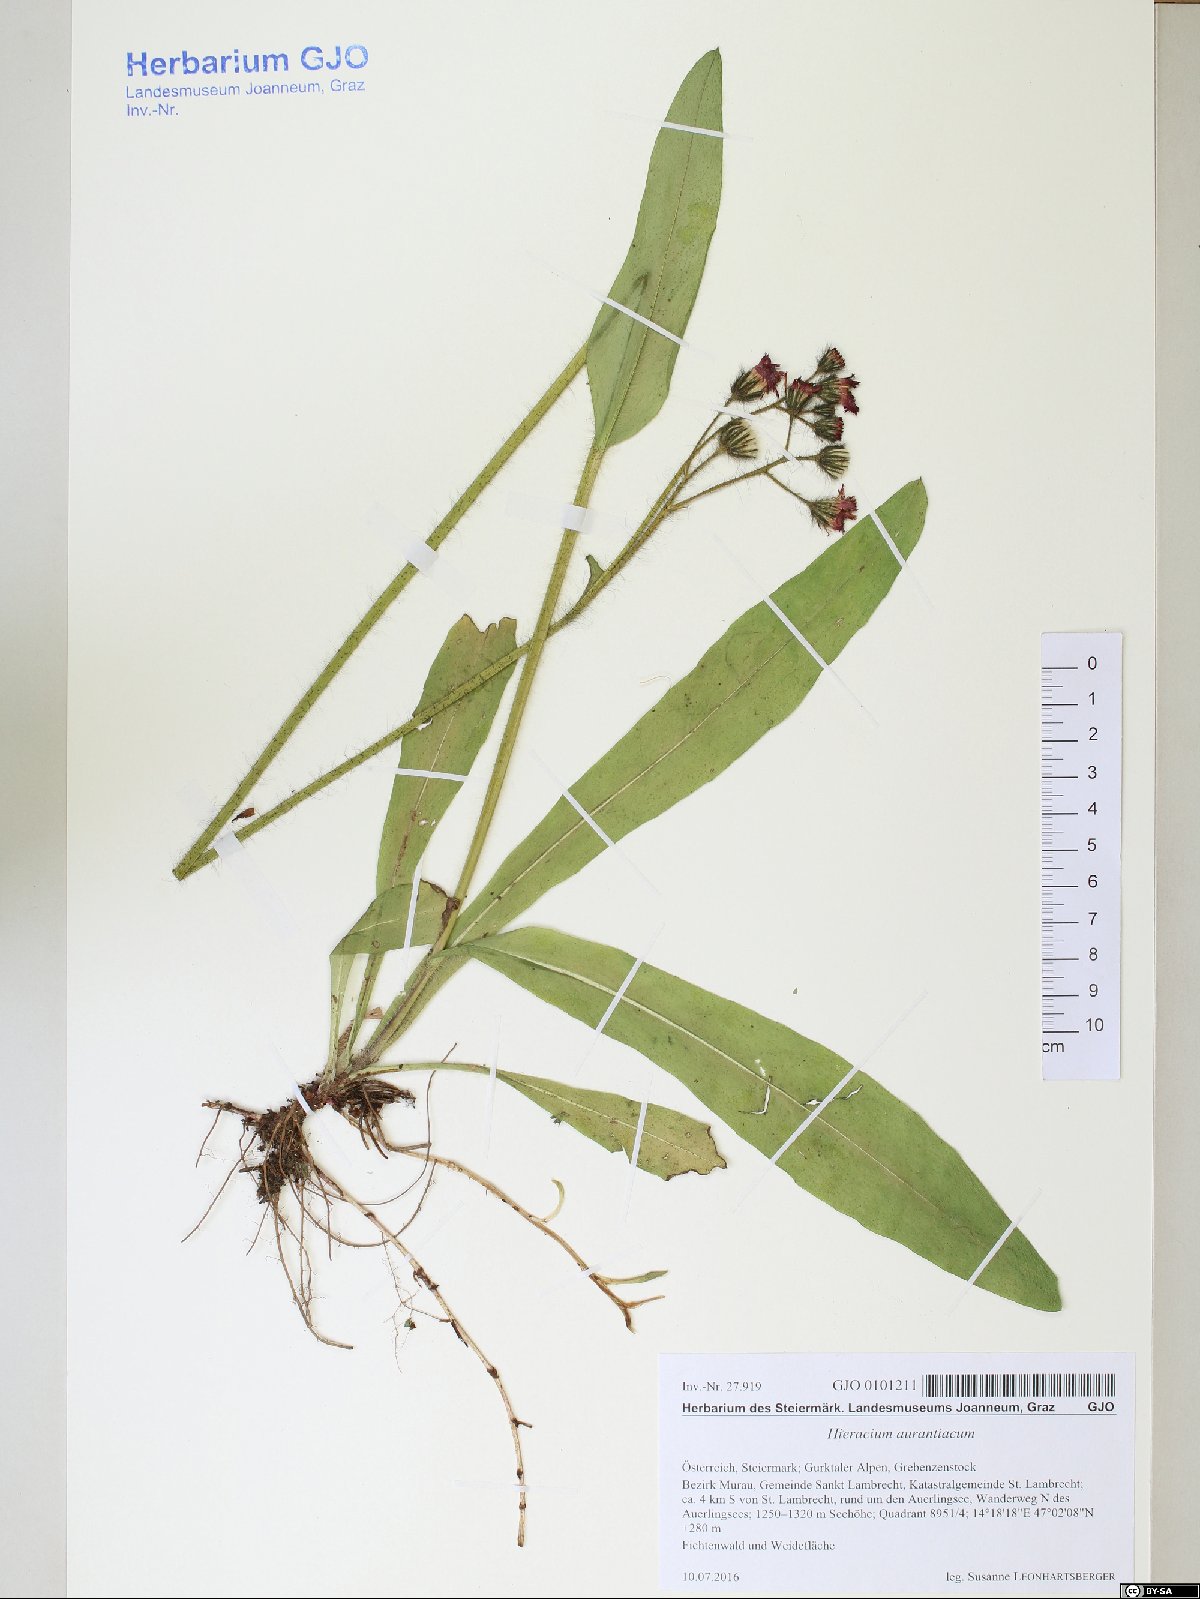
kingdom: Plantae
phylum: Tracheophyta
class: Magnoliopsida
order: Asterales
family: Asteraceae
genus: Pilosella
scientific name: Pilosella aurantiaca
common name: Fox-and-cubs
